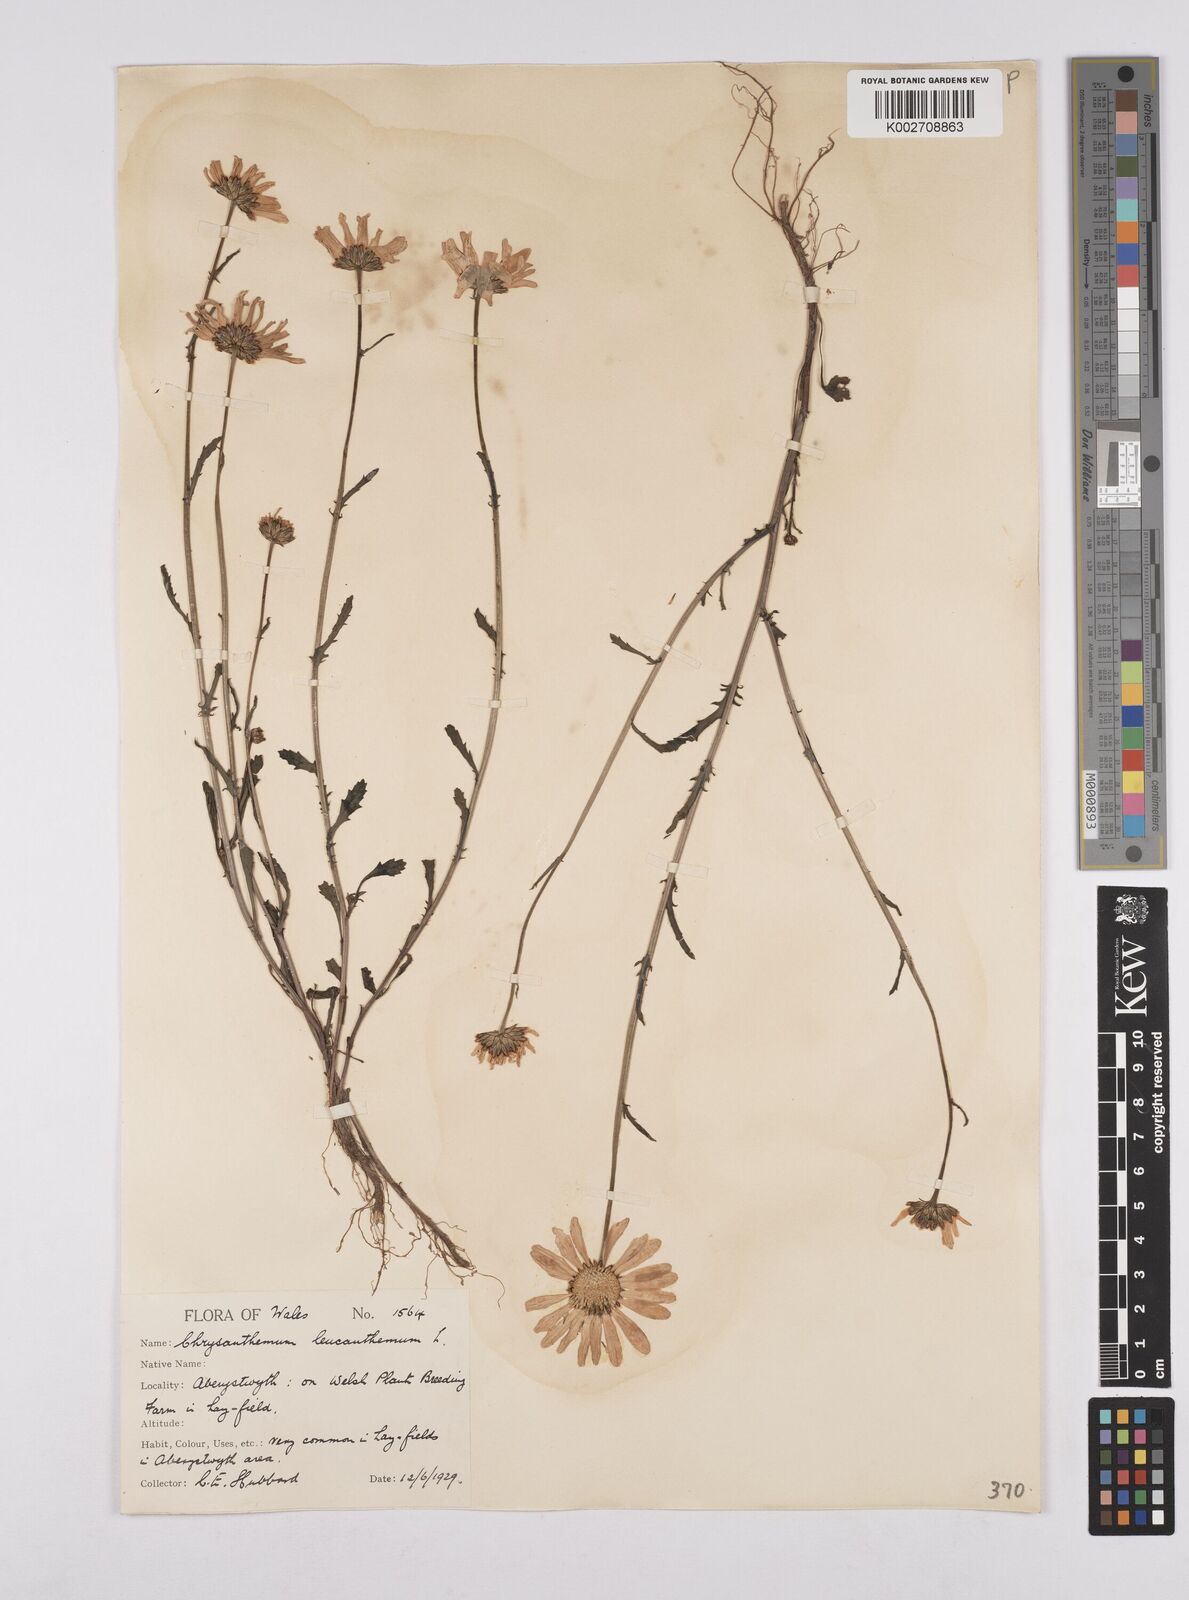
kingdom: Plantae
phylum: Tracheophyta
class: Magnoliopsida
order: Asterales
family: Asteraceae
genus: Leucanthemum
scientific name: Leucanthemum
